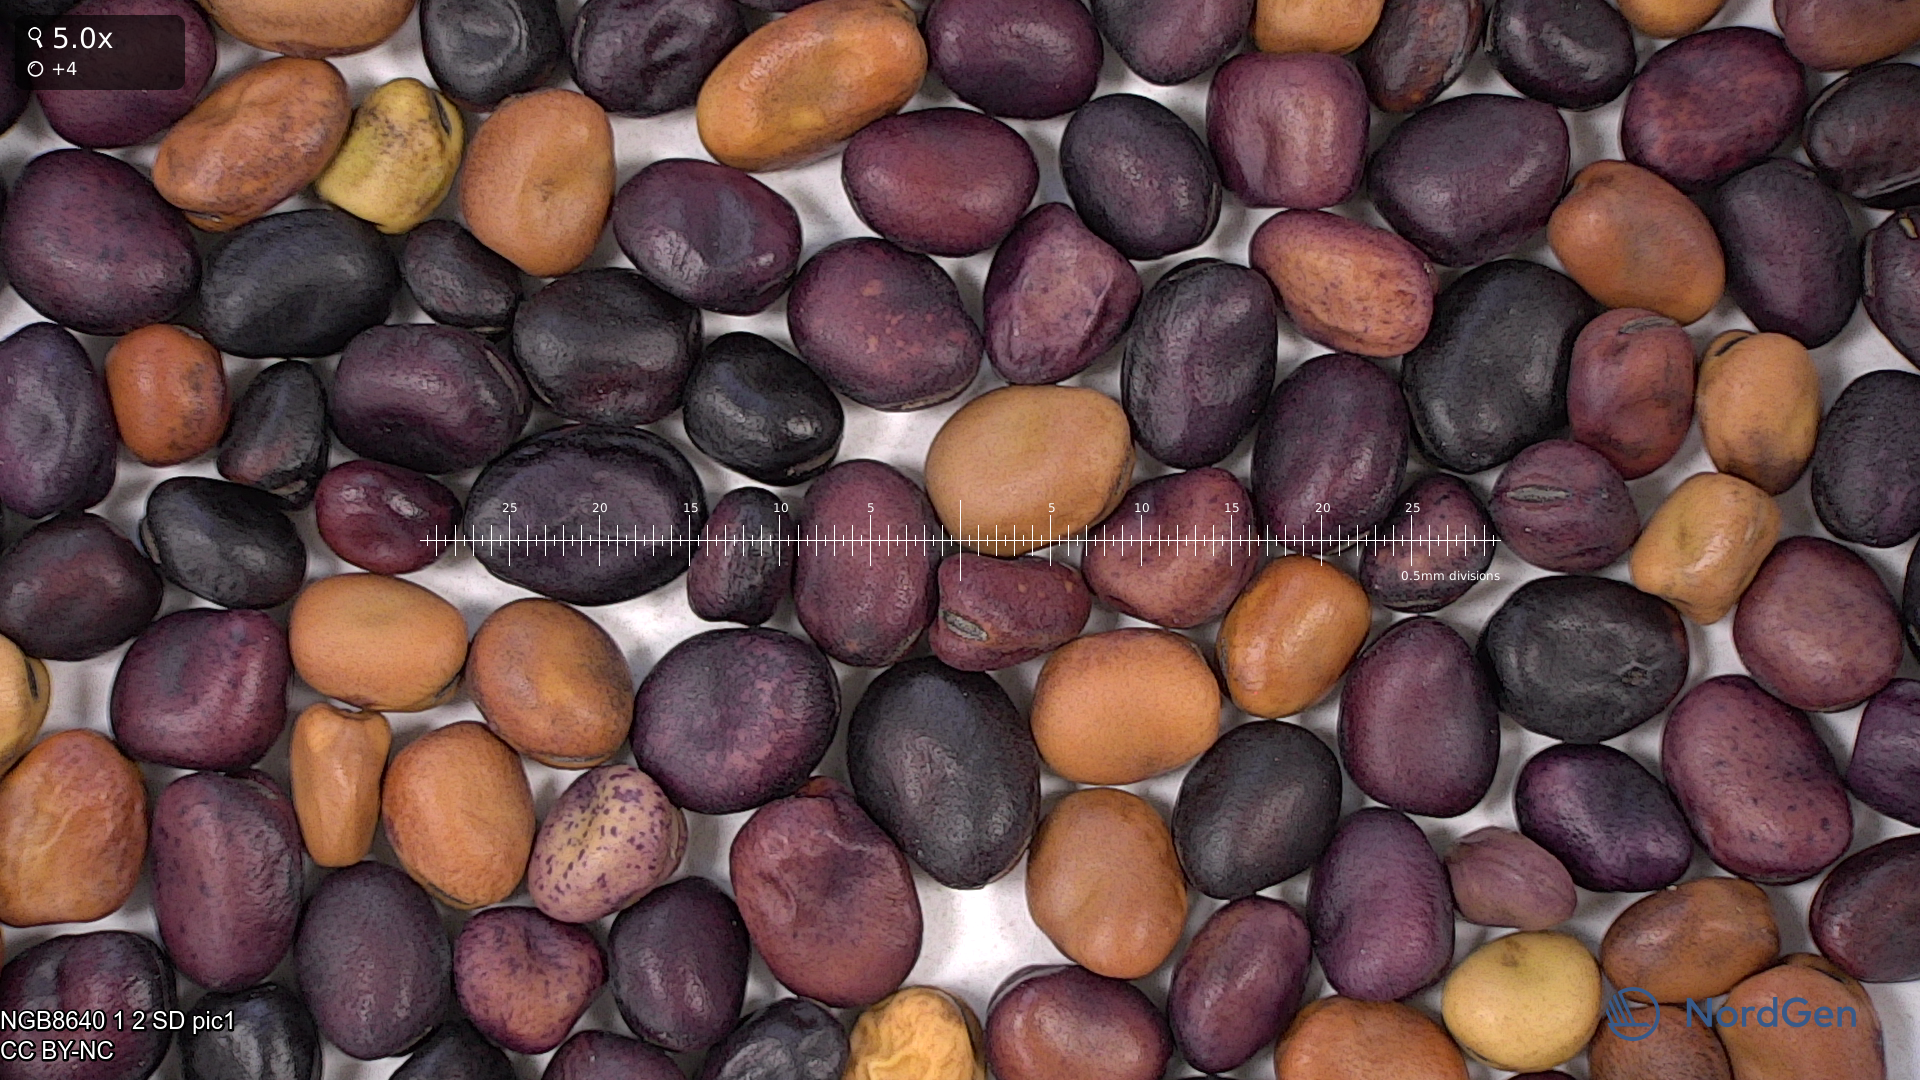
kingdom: Plantae
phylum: Tracheophyta
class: Magnoliopsida
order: Fabales
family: Fabaceae
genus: Vicia
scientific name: Vicia faba
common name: Broad bean
